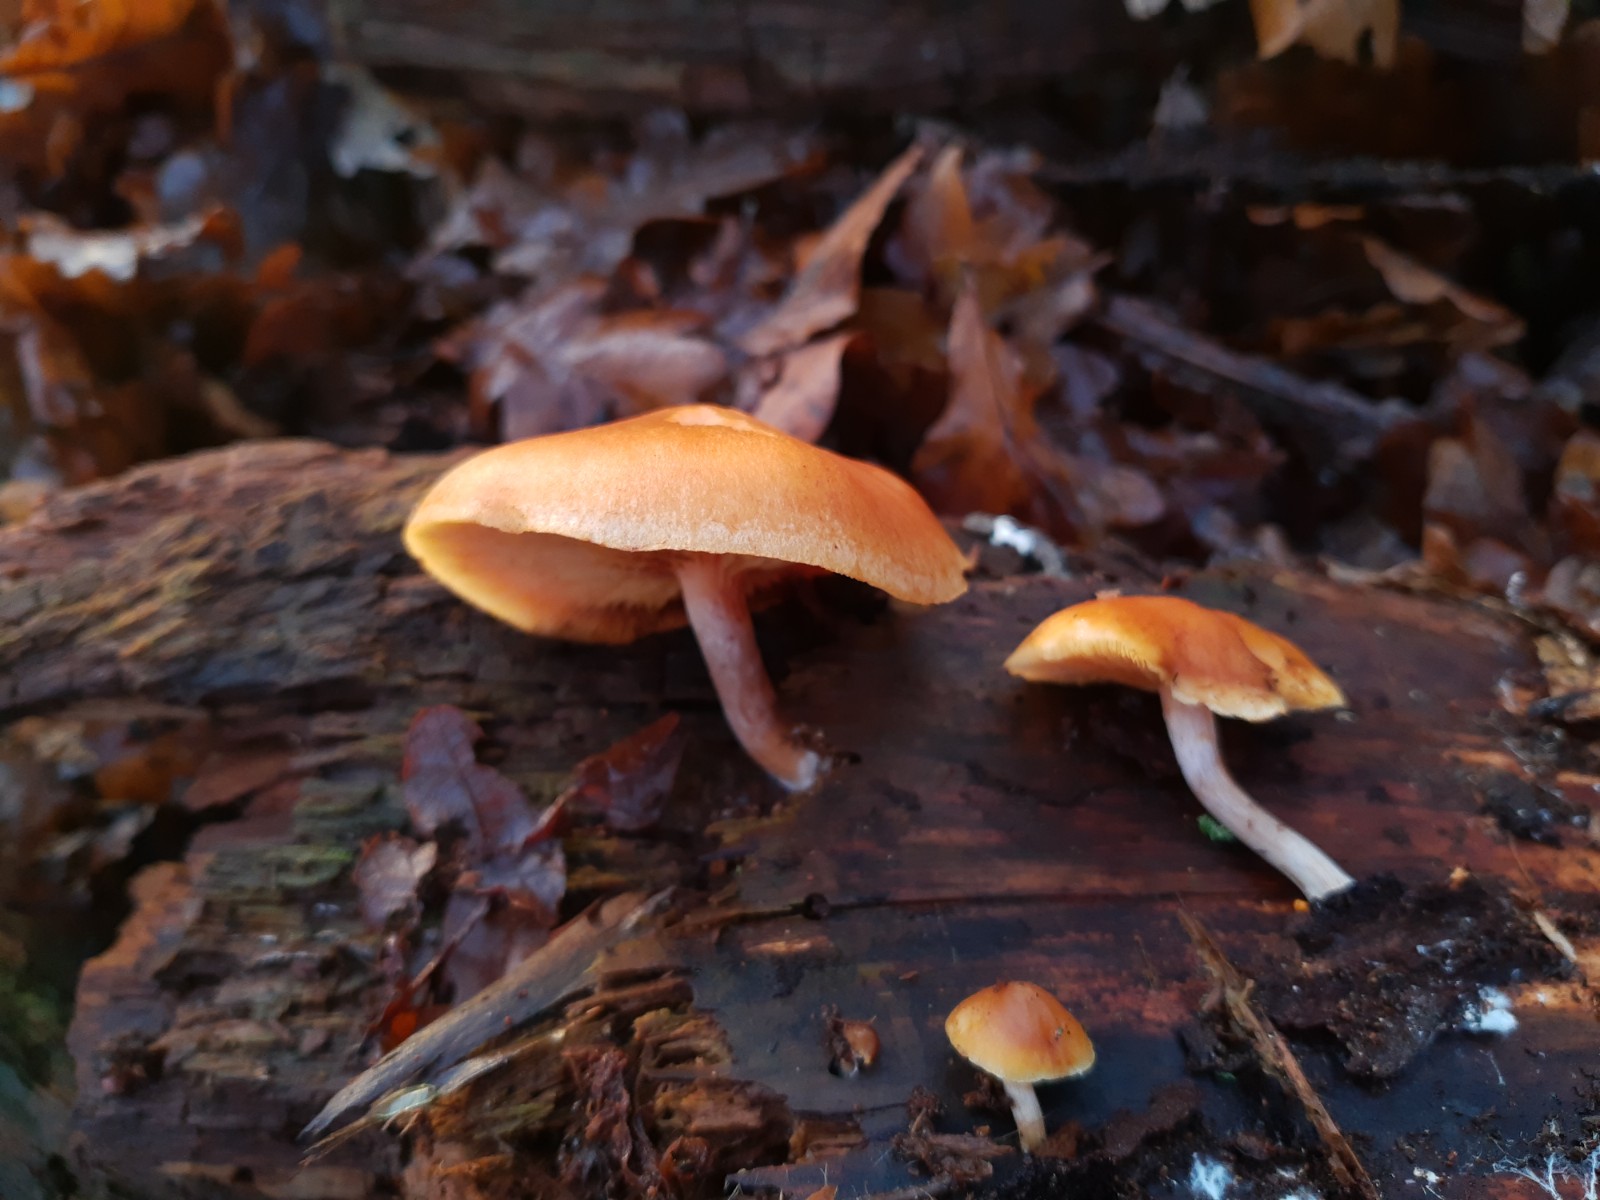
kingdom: Fungi
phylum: Basidiomycota
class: Agaricomycetes
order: Agaricales
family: Hymenogastraceae
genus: Gymnopilus
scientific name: Gymnopilus penetrans
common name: plettet flammehat
